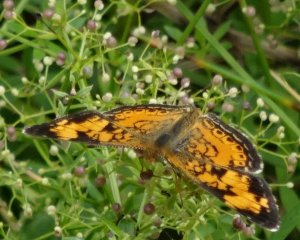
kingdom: Animalia
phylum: Arthropoda
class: Insecta
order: Lepidoptera
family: Nymphalidae
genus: Phyciodes
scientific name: Phyciodes tharos
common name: Pearl Crescent
